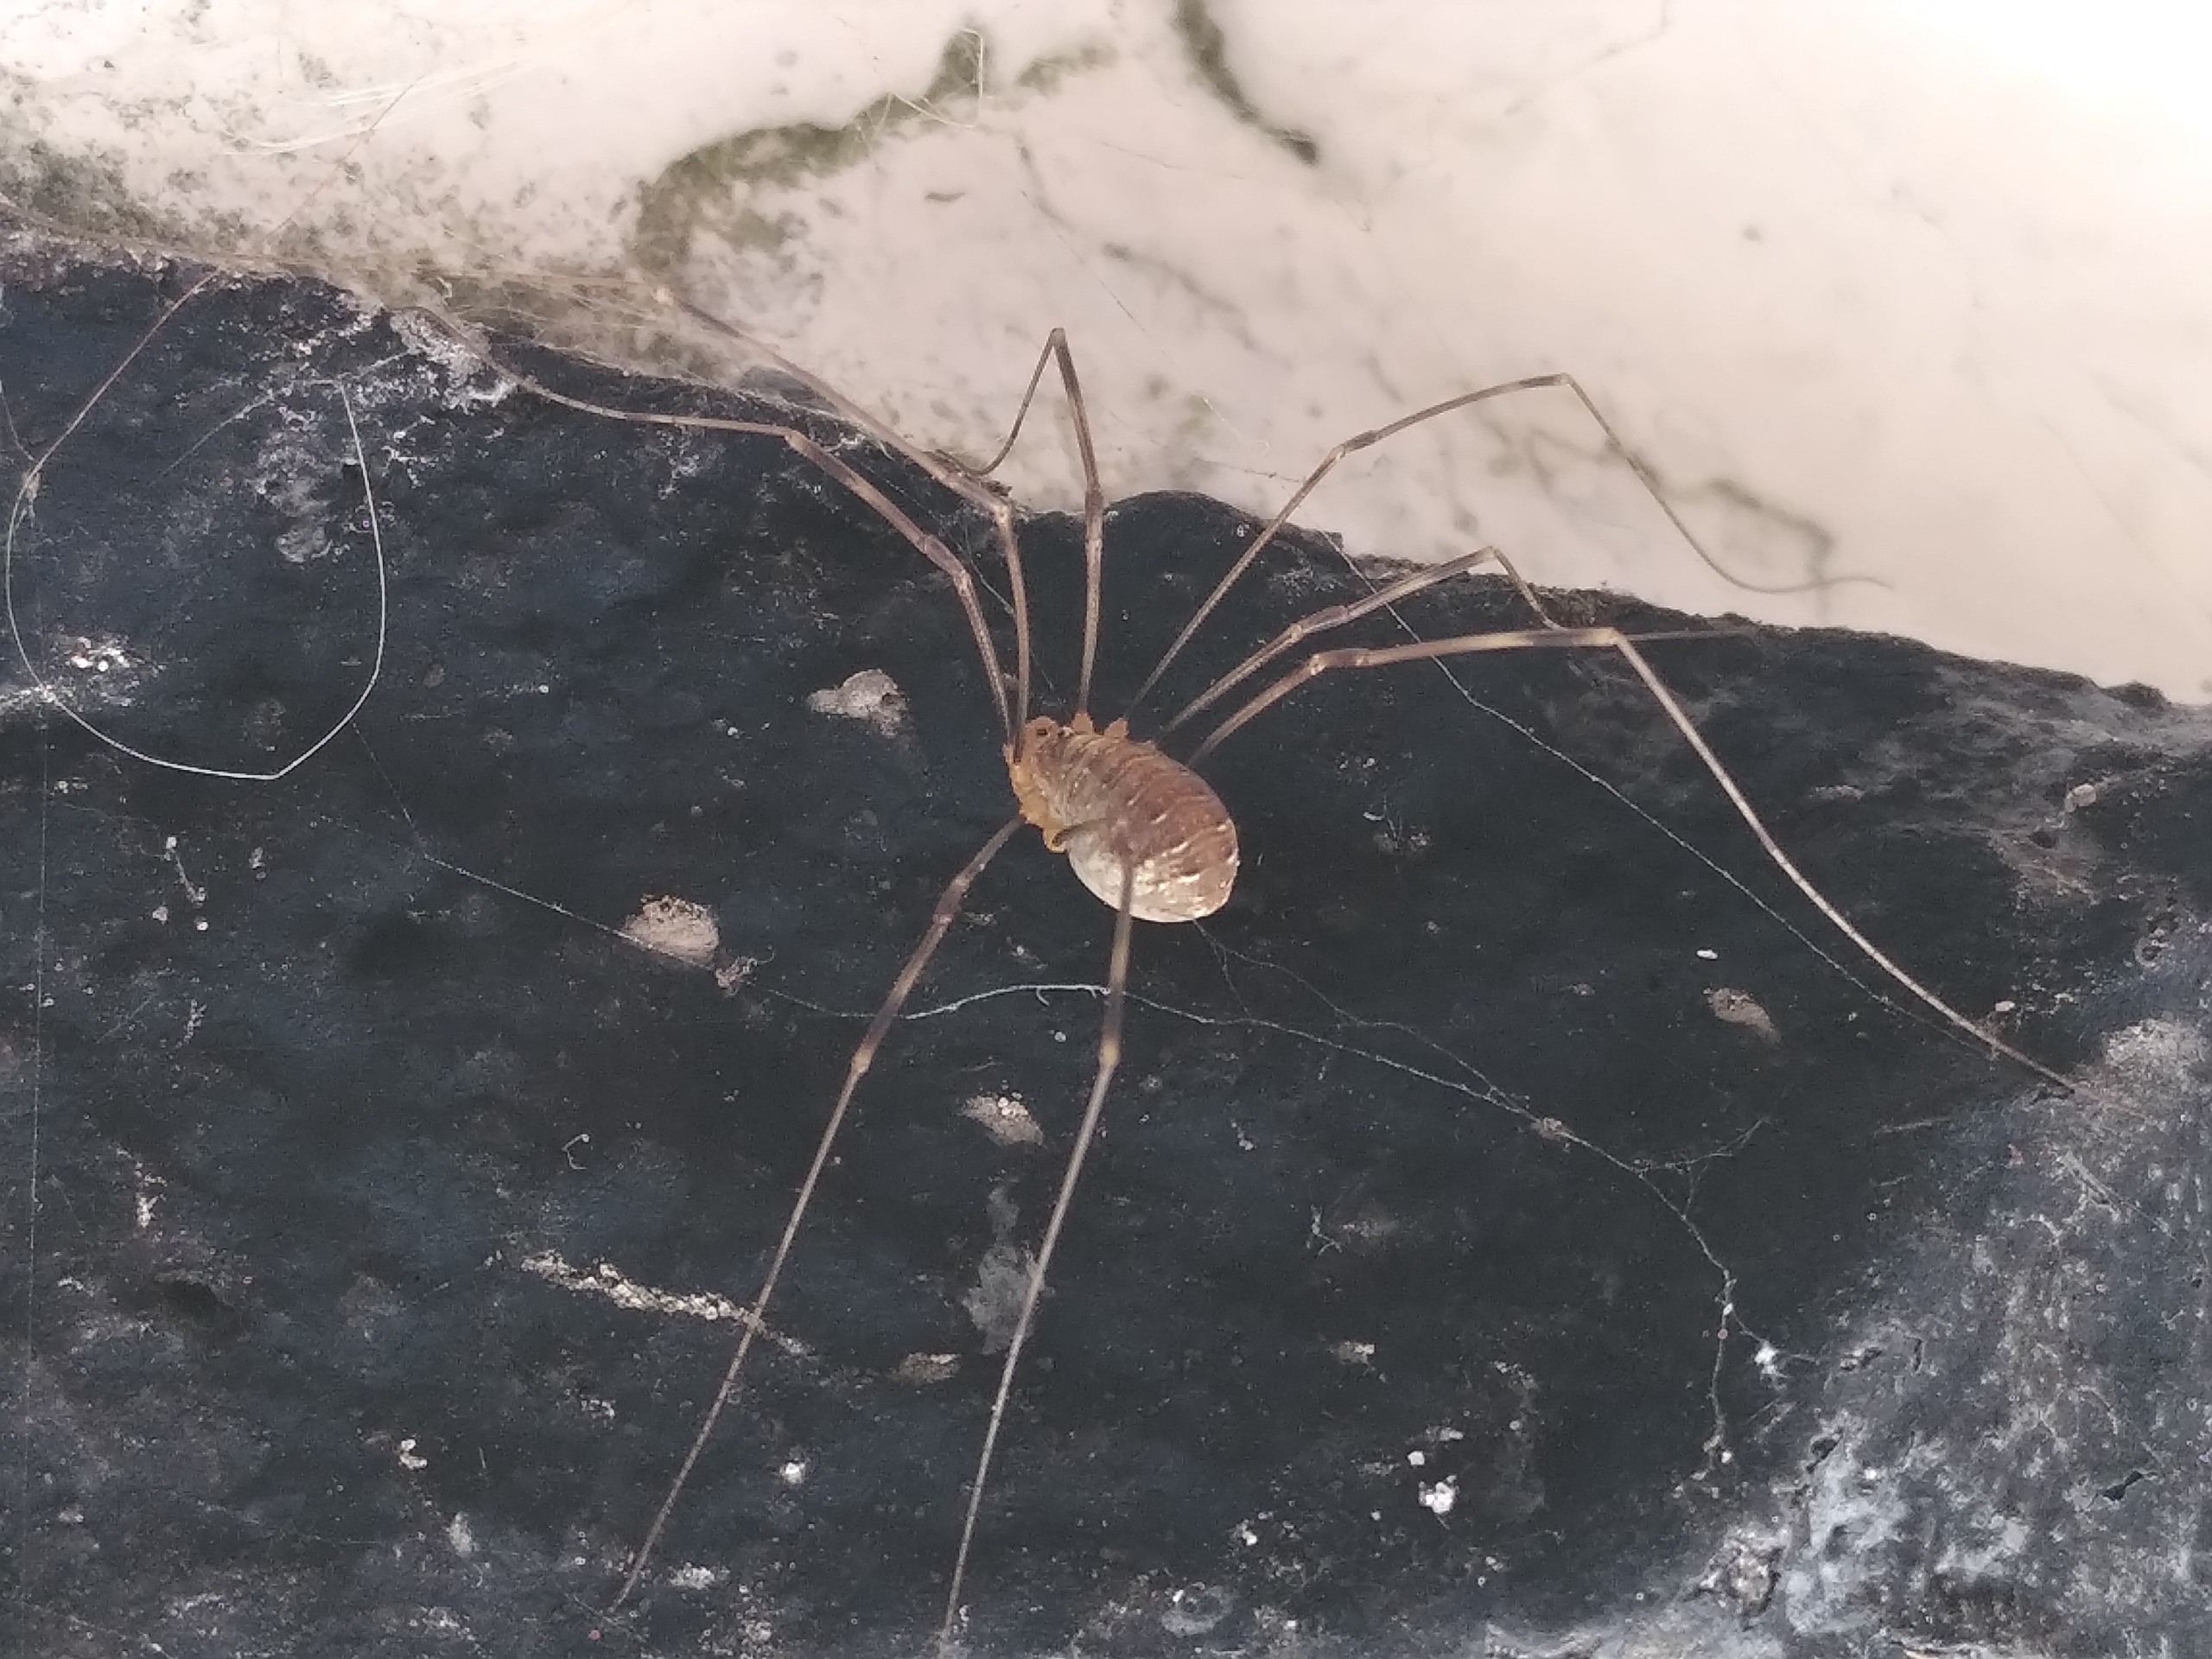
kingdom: Animalia
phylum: Arthropoda
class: Arachnida
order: Opiliones
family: Phalangiidae
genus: Opilio
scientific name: Opilio canestrinii
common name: Orange vægmejer
